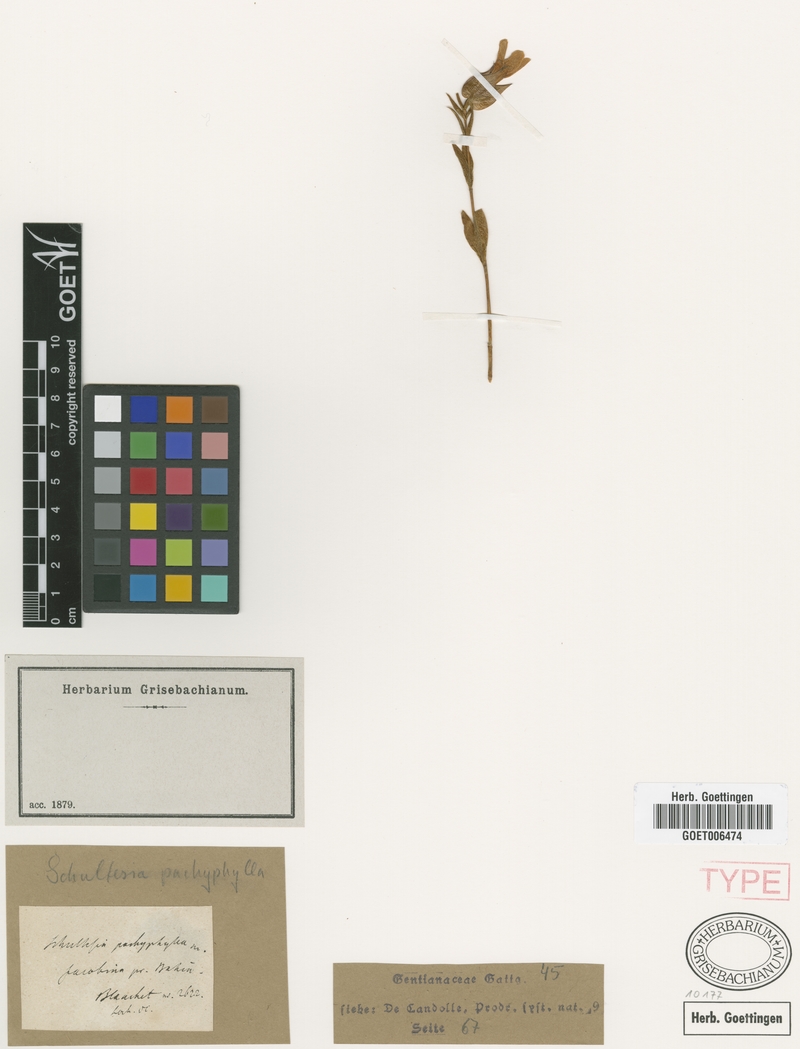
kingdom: Plantae
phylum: Tracheophyta
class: Magnoliopsida
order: Gentianales
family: Gentianaceae
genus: Schultesia
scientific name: Schultesia pachyphylla
